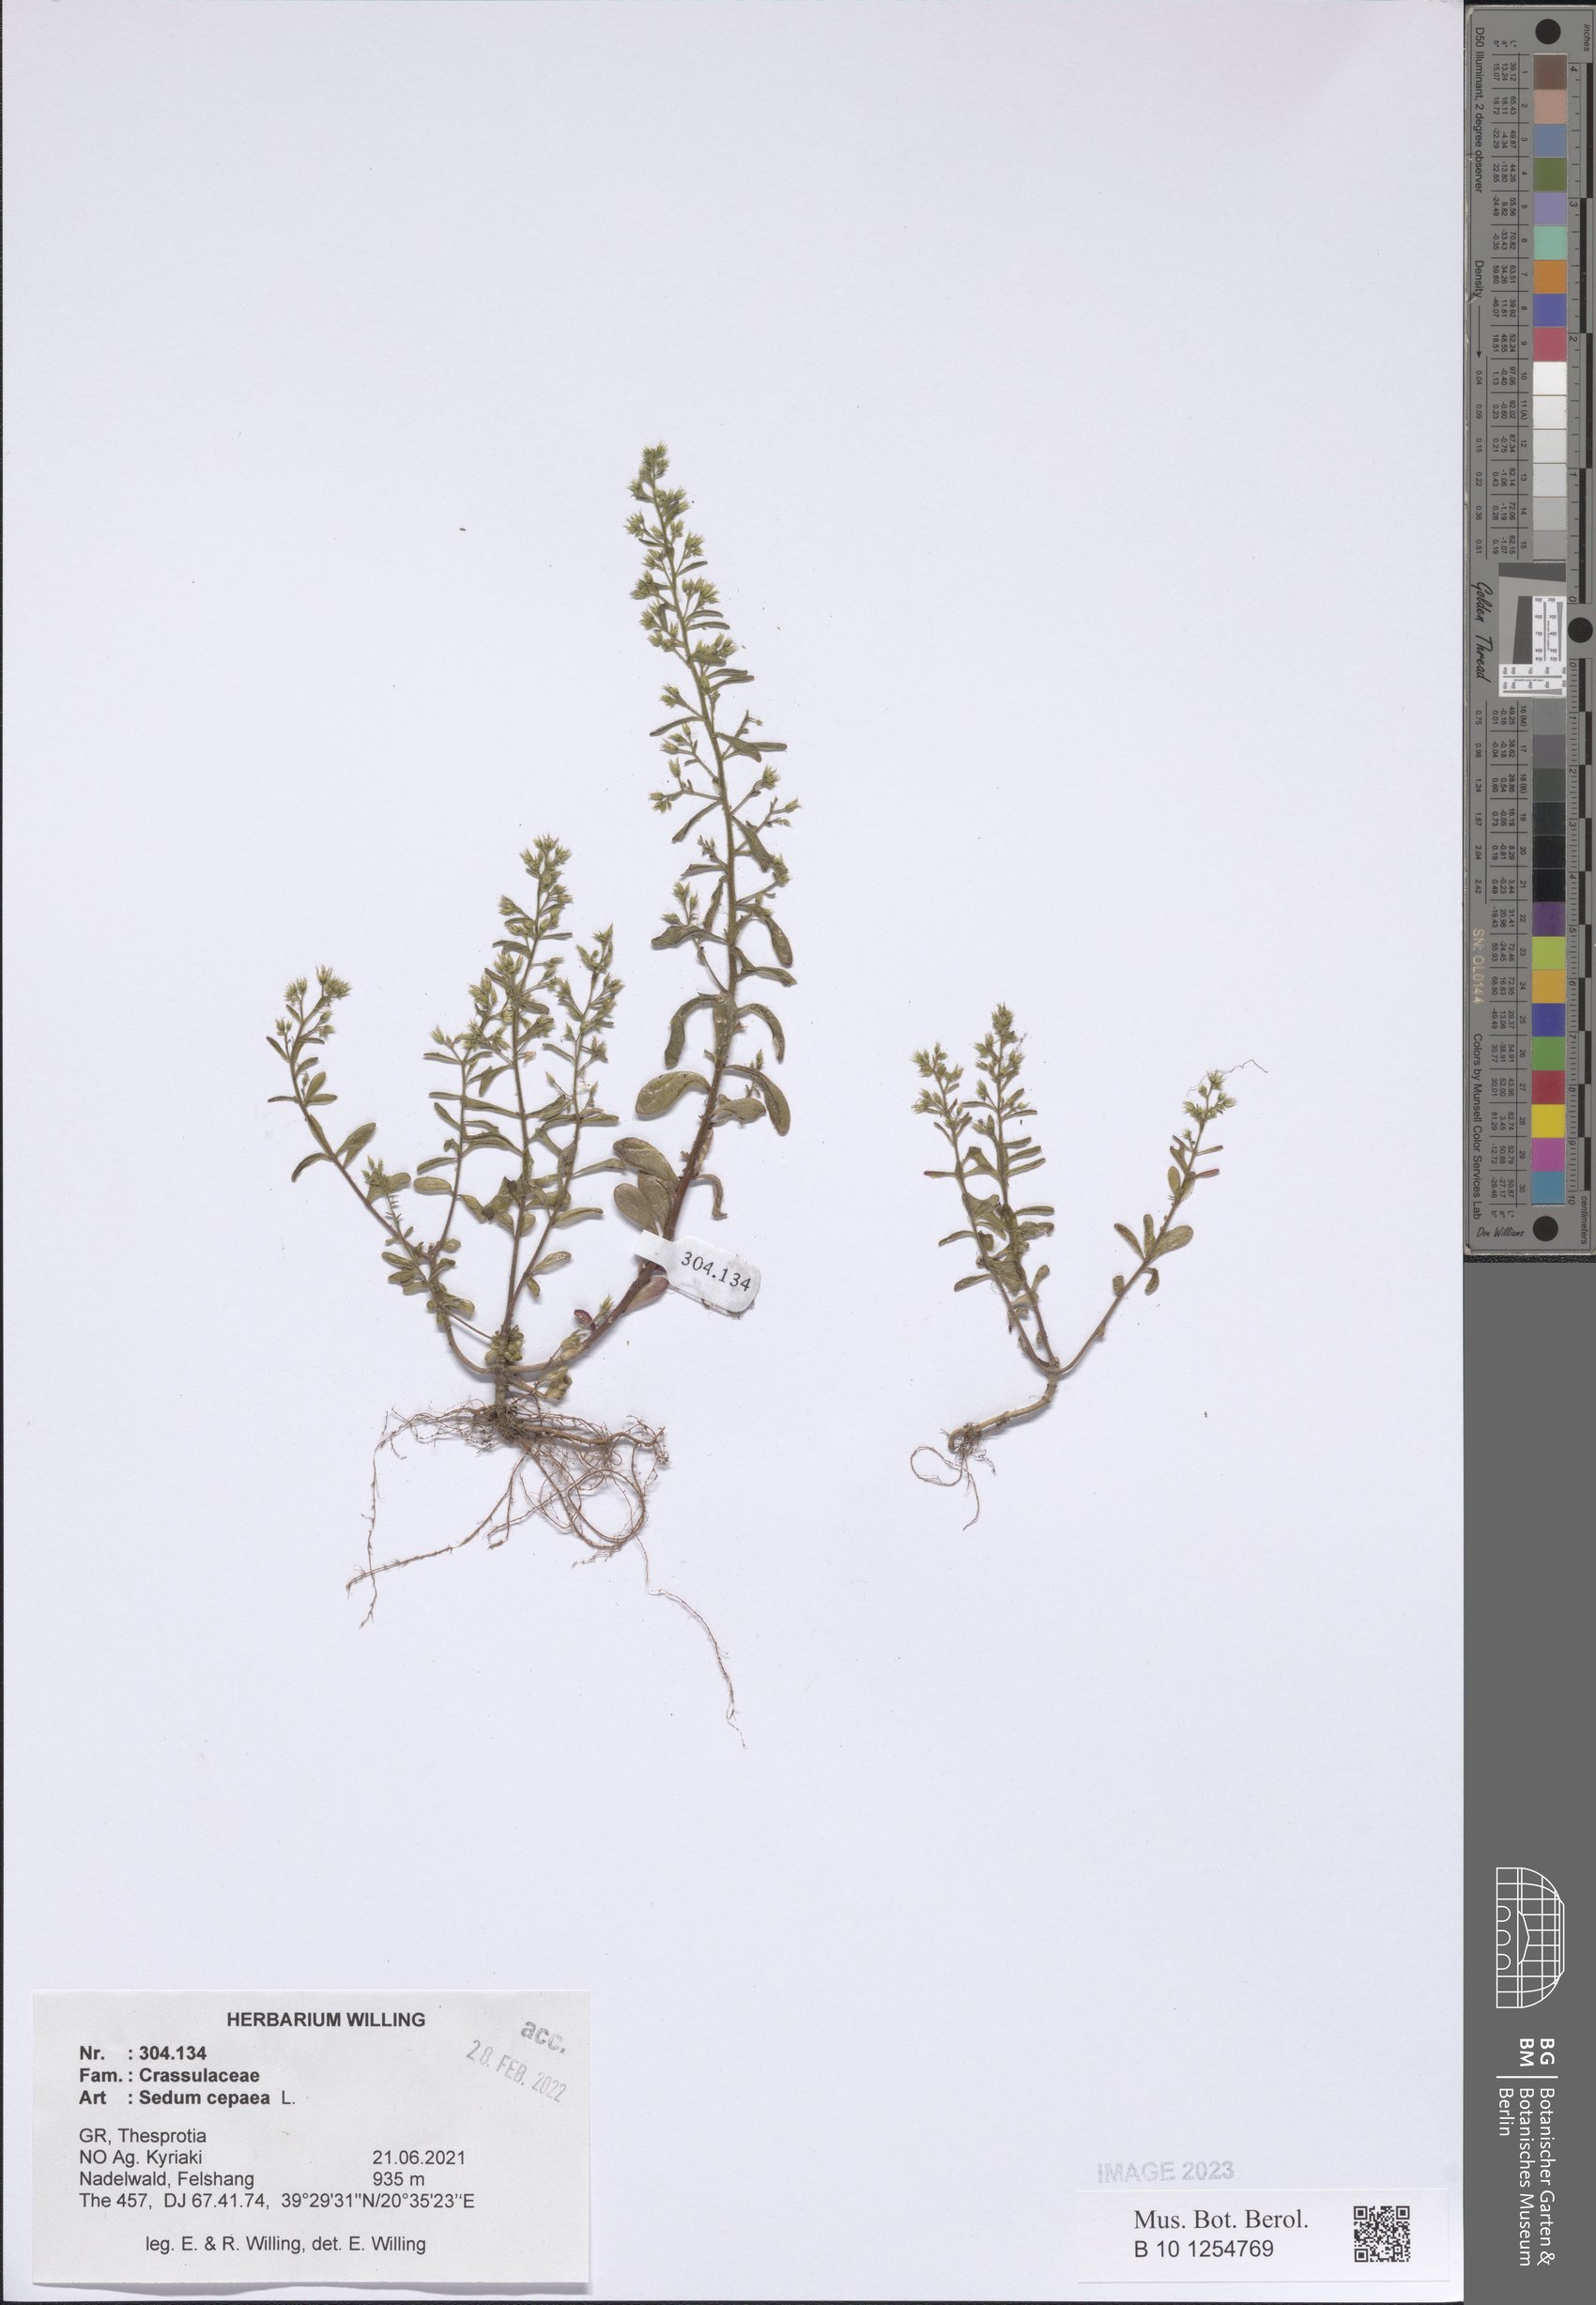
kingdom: Plantae
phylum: Tracheophyta
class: Magnoliopsida
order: Saxifragales
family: Crassulaceae
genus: Sedum
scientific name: Sedum cepaea
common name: Pink stonecrop
